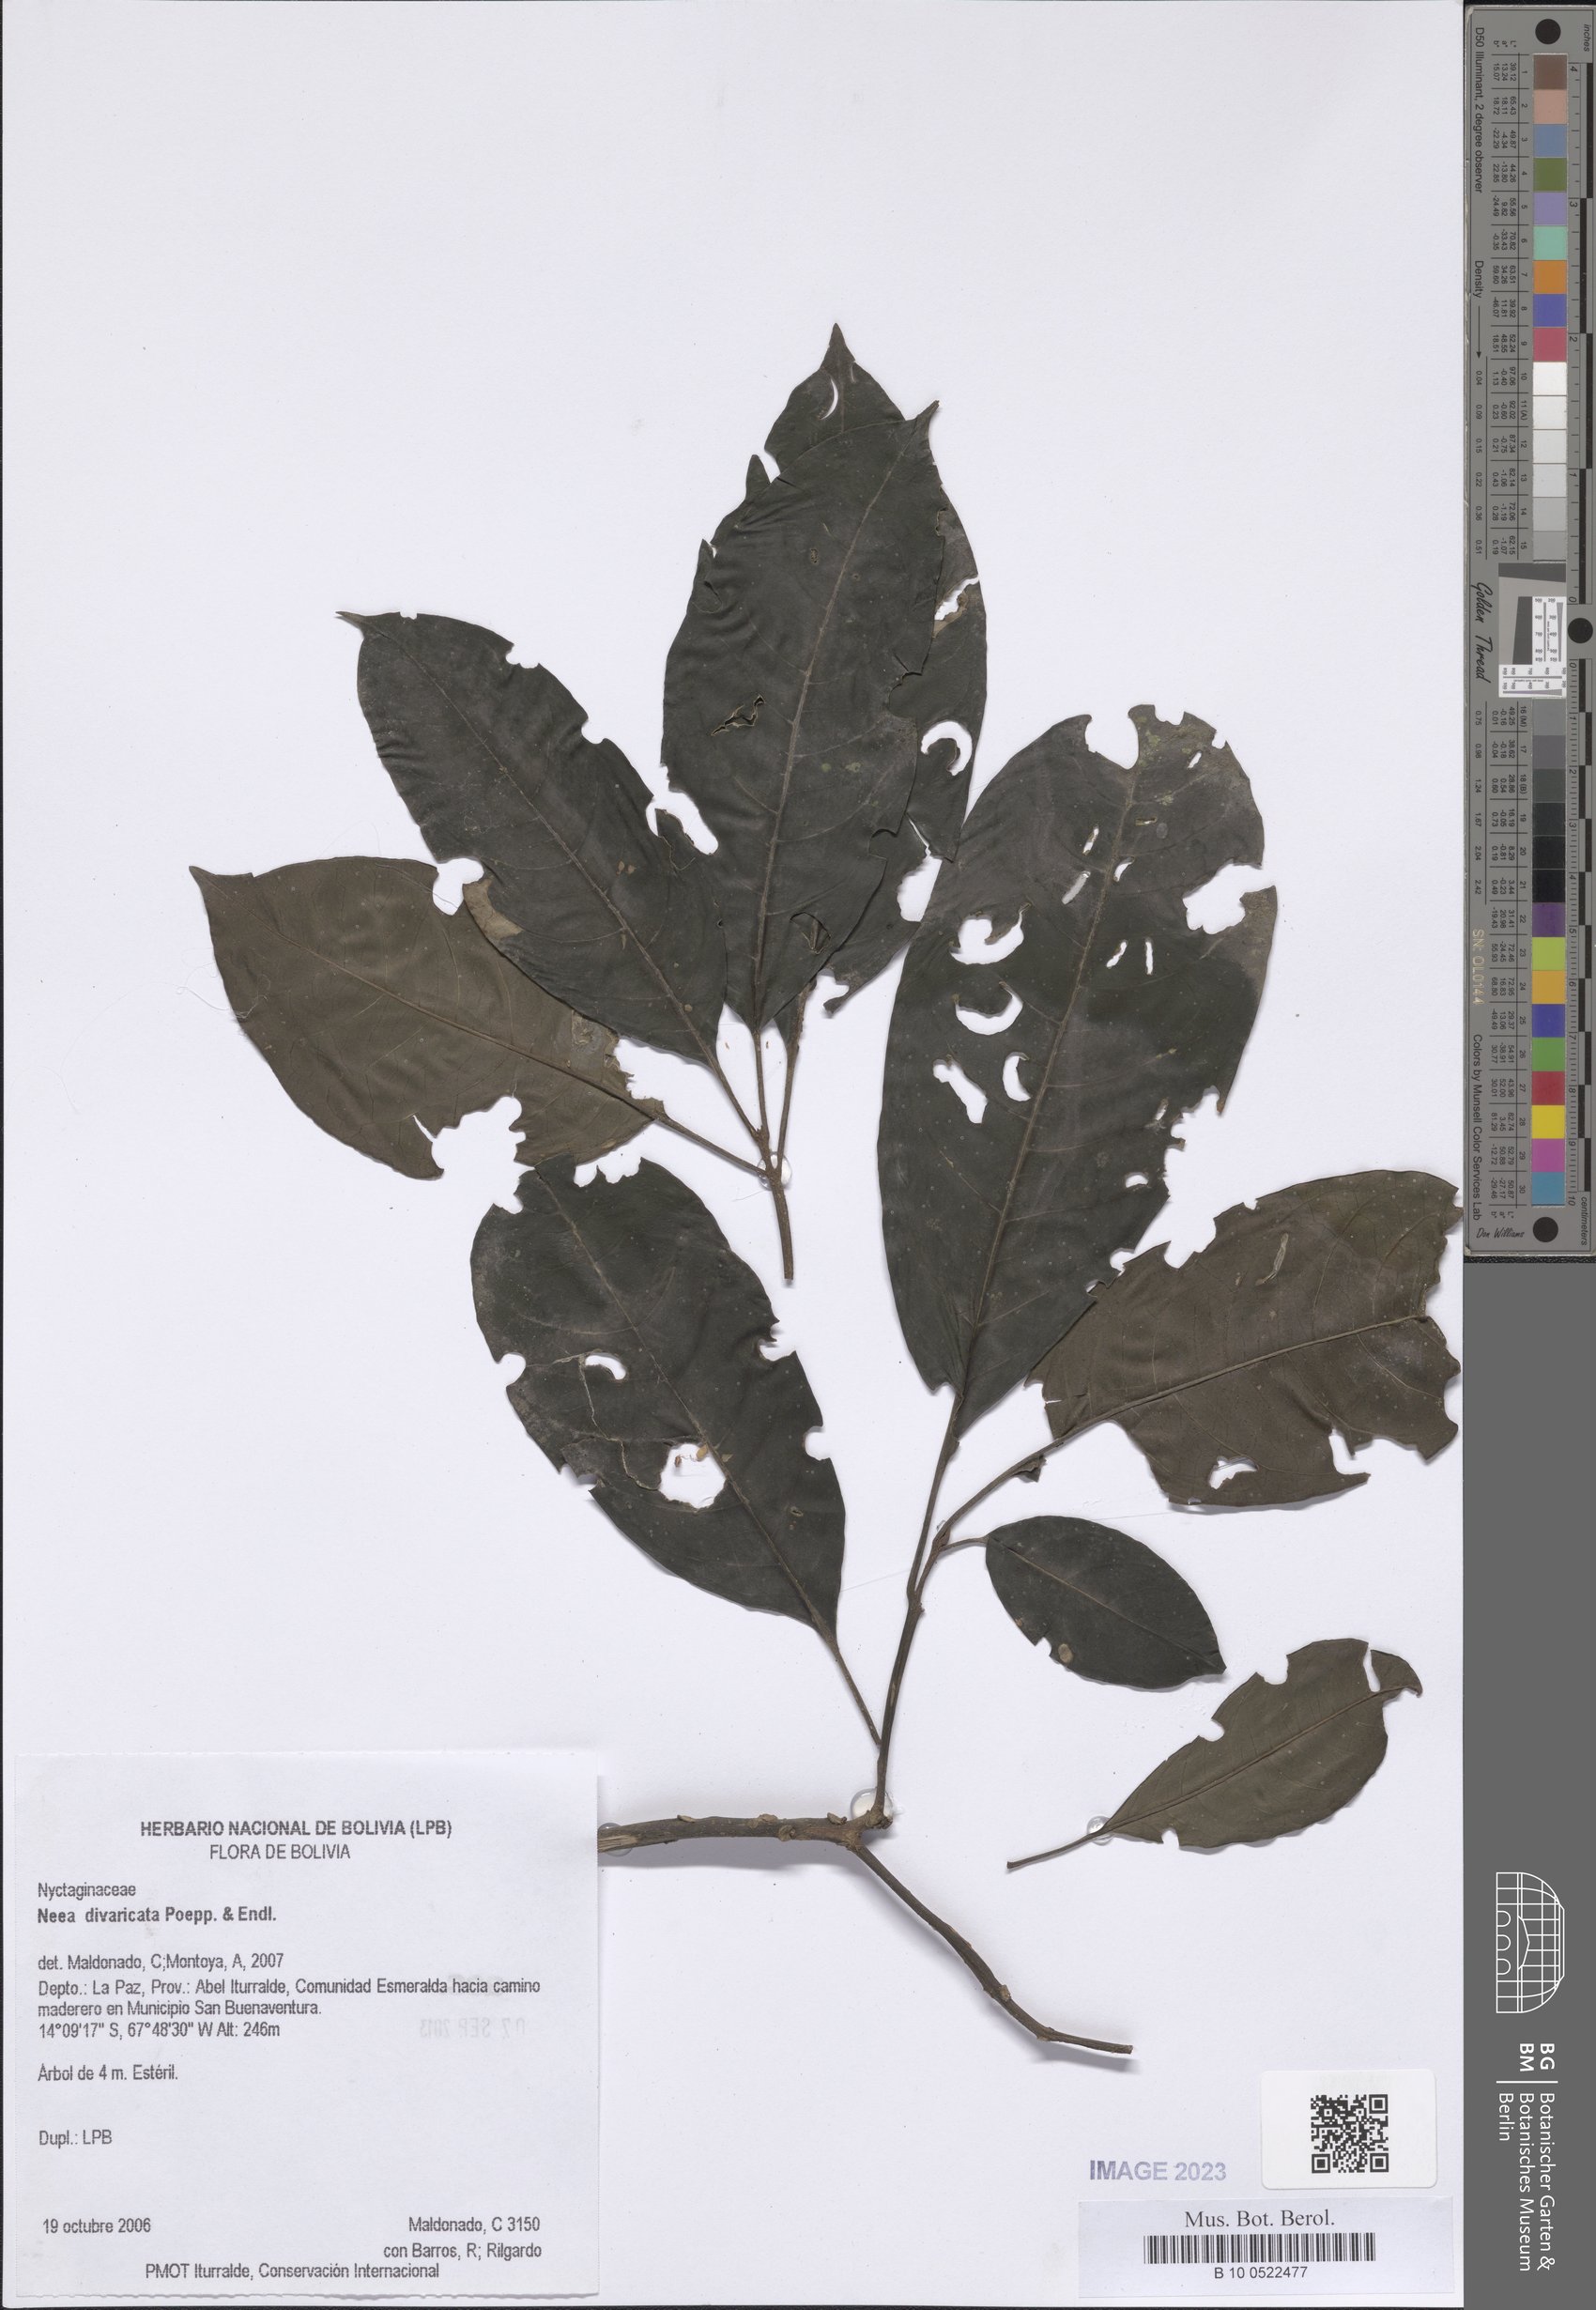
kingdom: Plantae
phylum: Tracheophyta
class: Magnoliopsida
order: Caryophyllales
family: Nyctaginaceae
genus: Neea
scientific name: Neea divaricata
